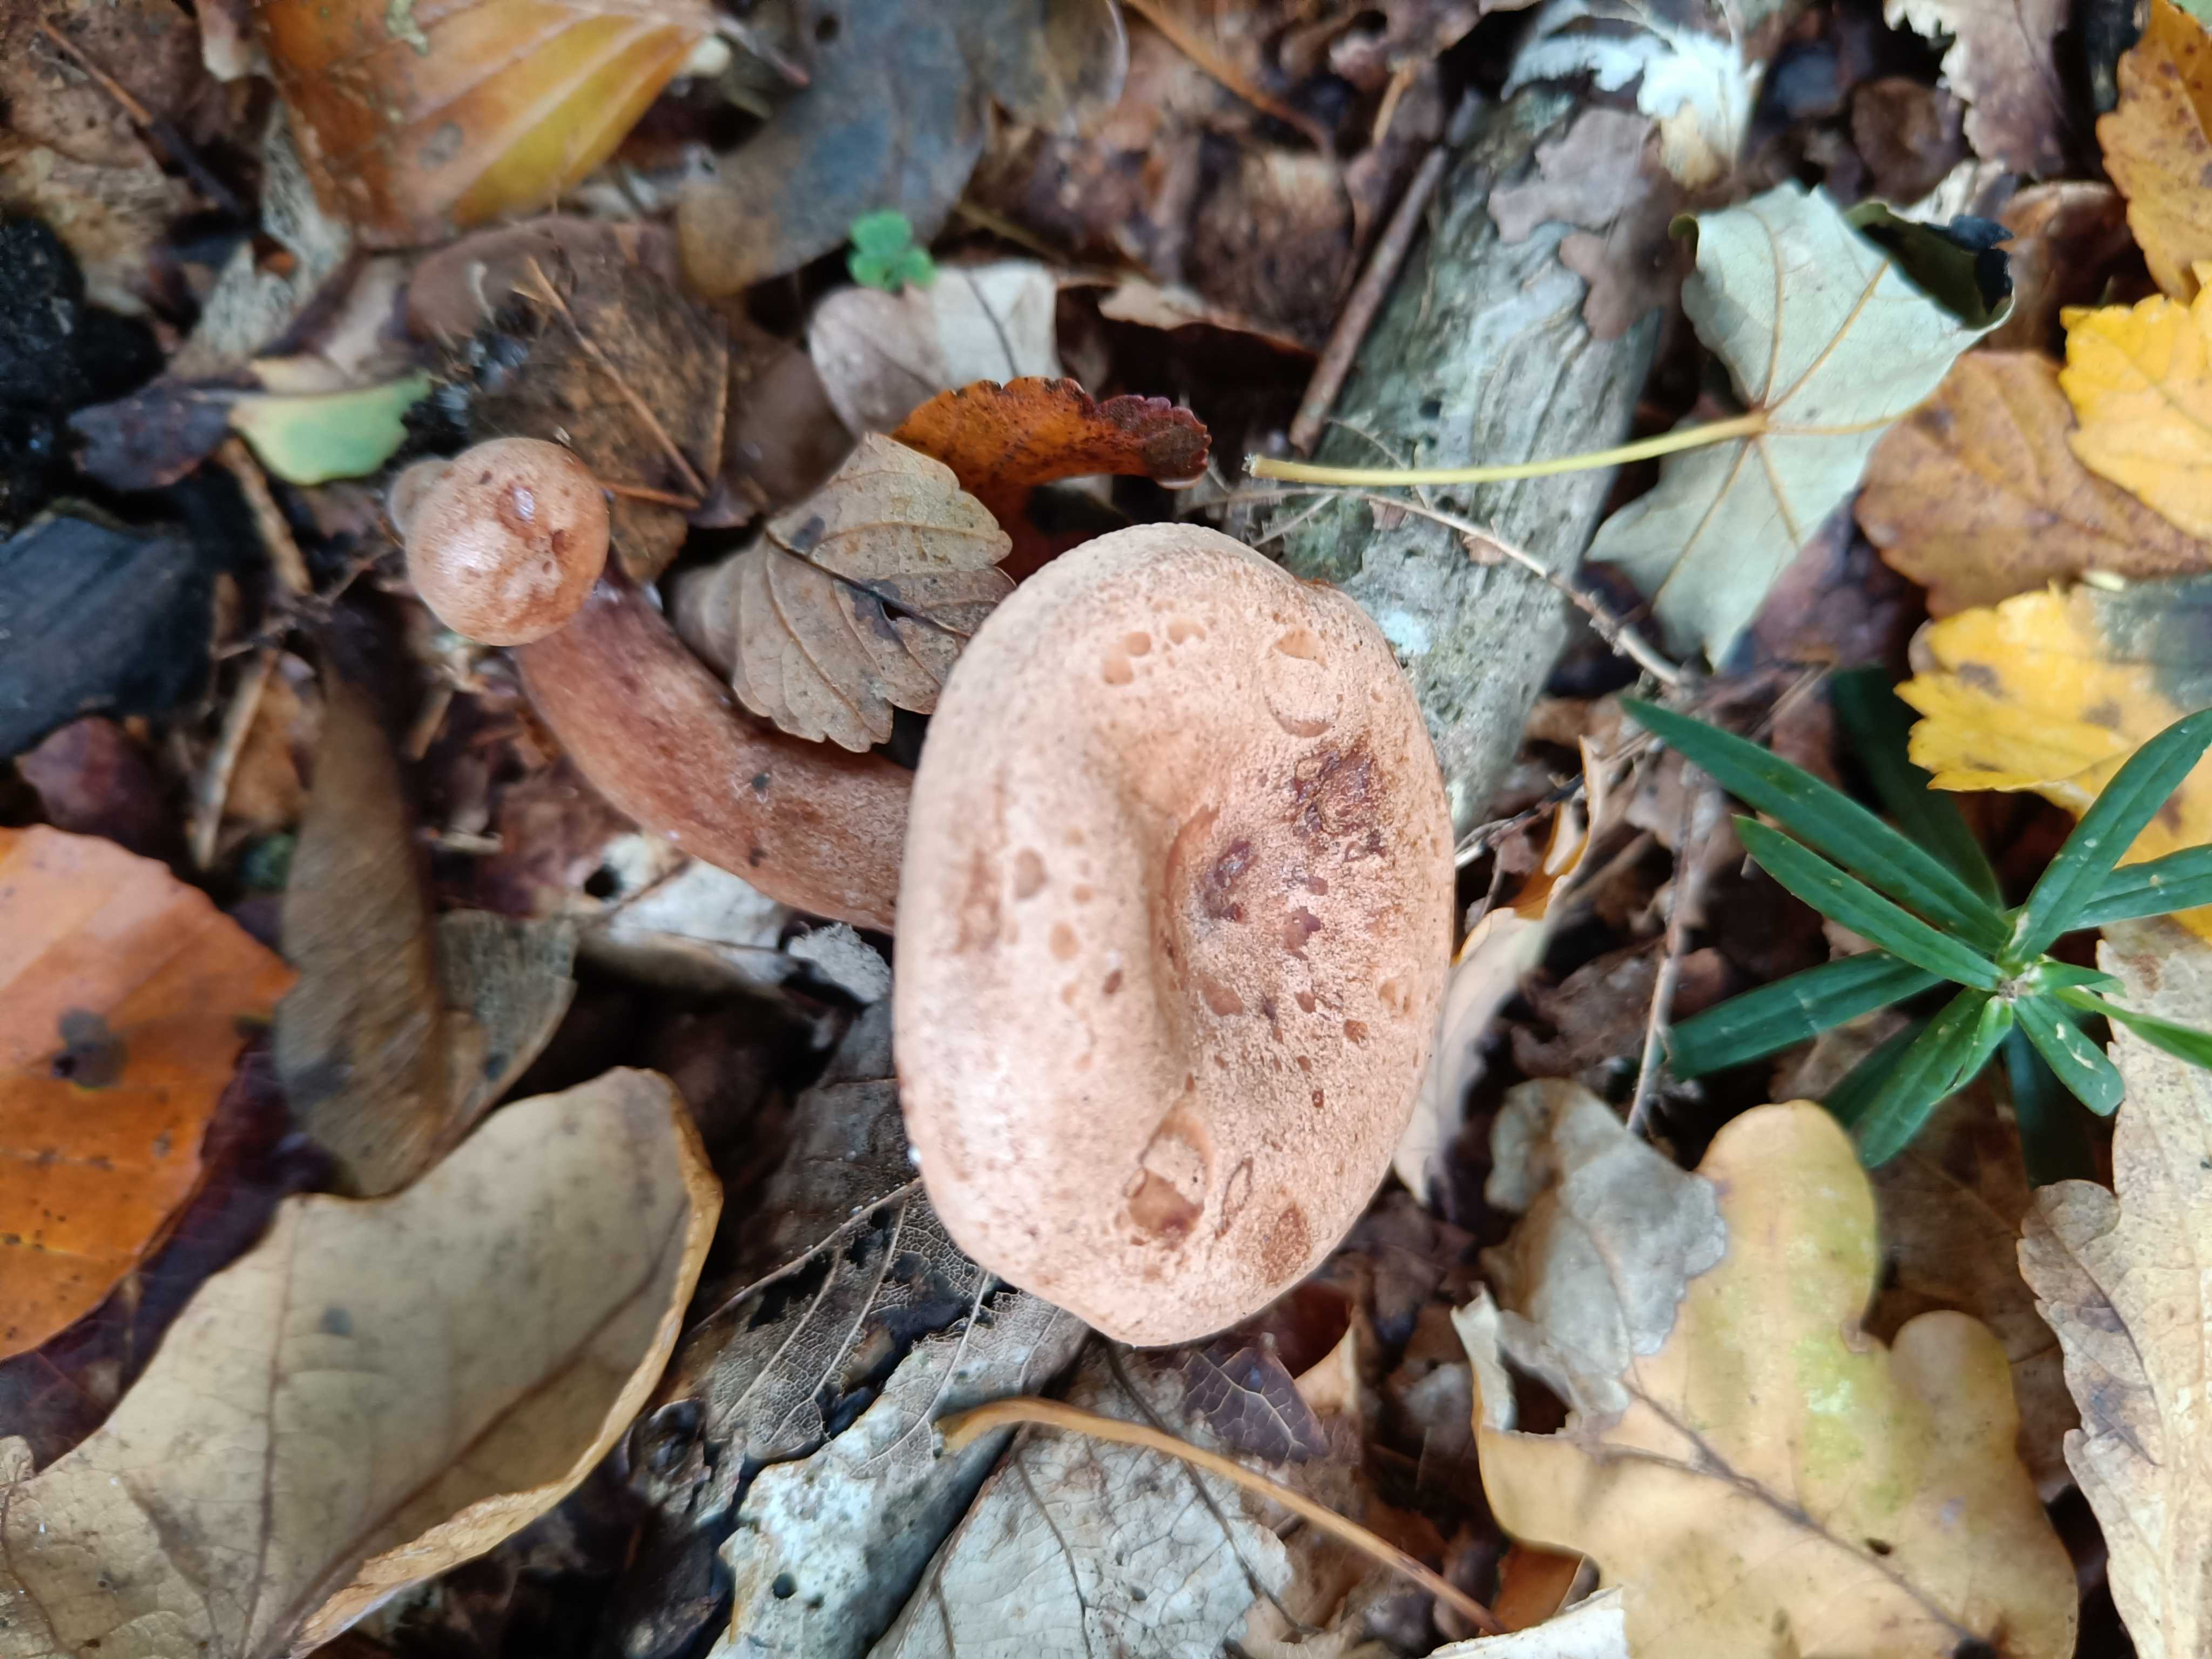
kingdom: Fungi
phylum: Basidiomycota
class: Agaricomycetes
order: Russulales
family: Russulaceae
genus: Lactarius
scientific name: Lactarius quietus
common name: ege-mælkehat
